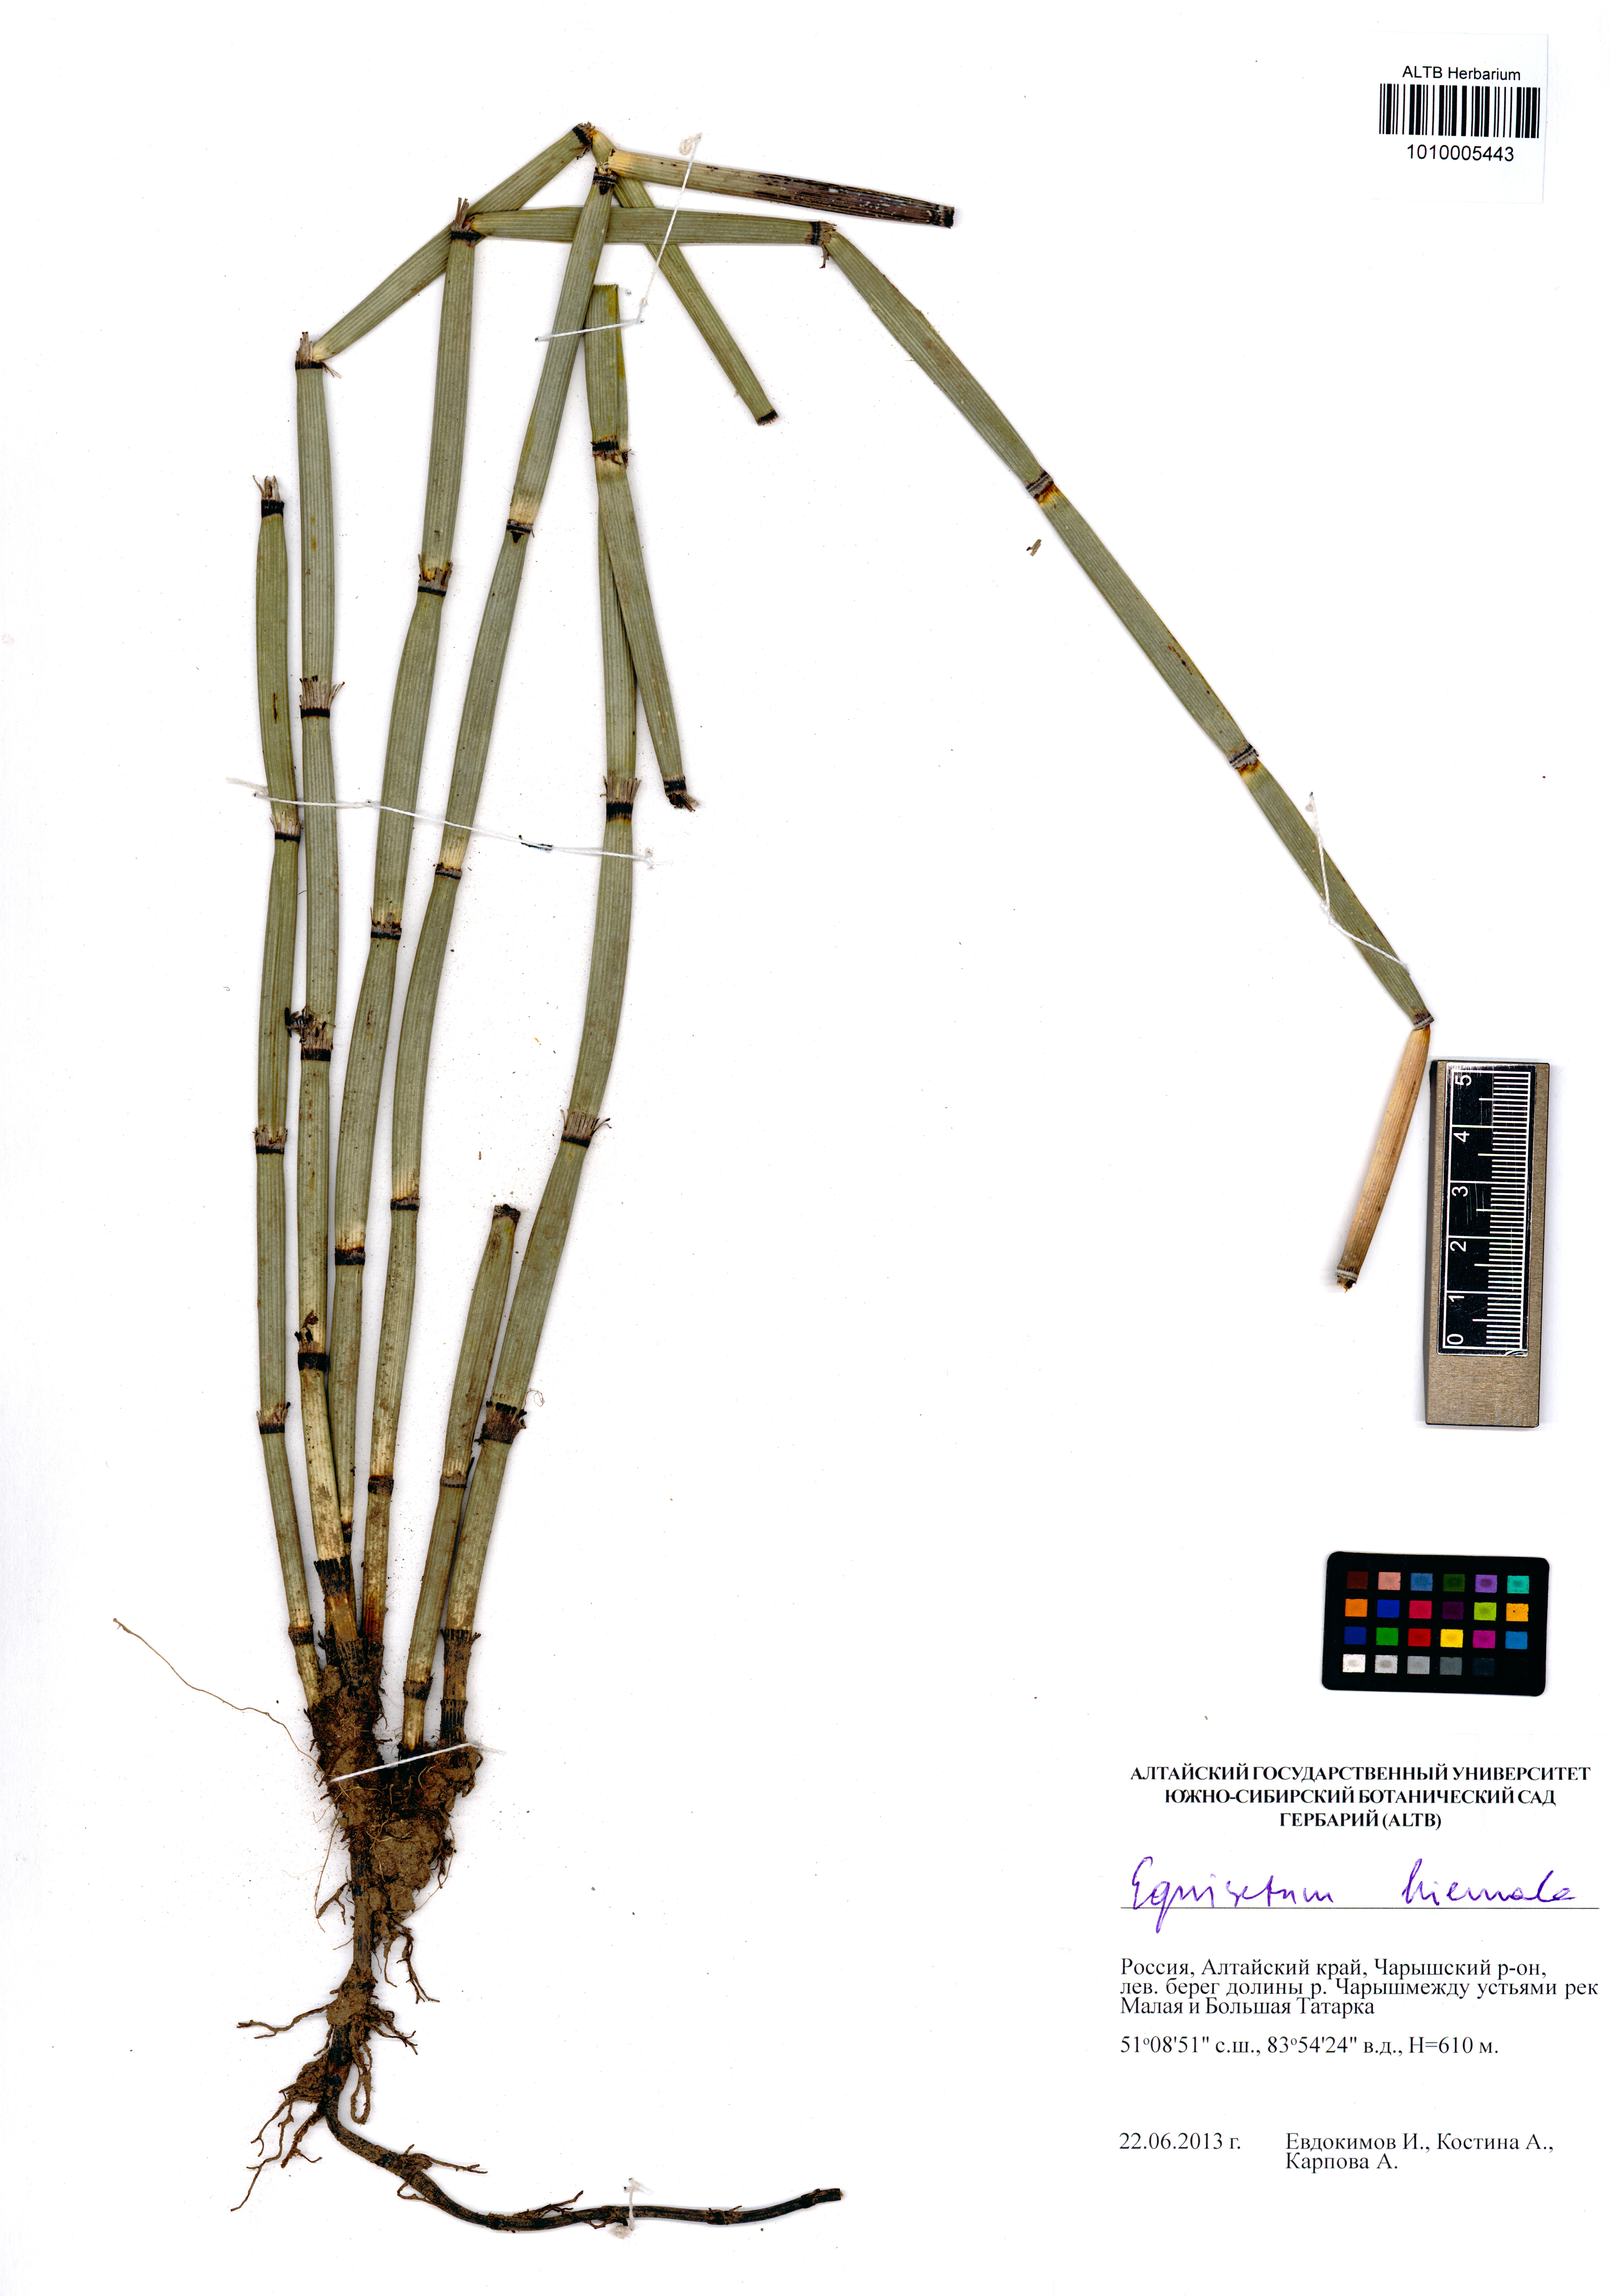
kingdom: Plantae
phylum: Tracheophyta
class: Polypodiopsida
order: Equisetales
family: Equisetaceae
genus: Equisetum
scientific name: Equisetum hyemale
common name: Rough horsetail
